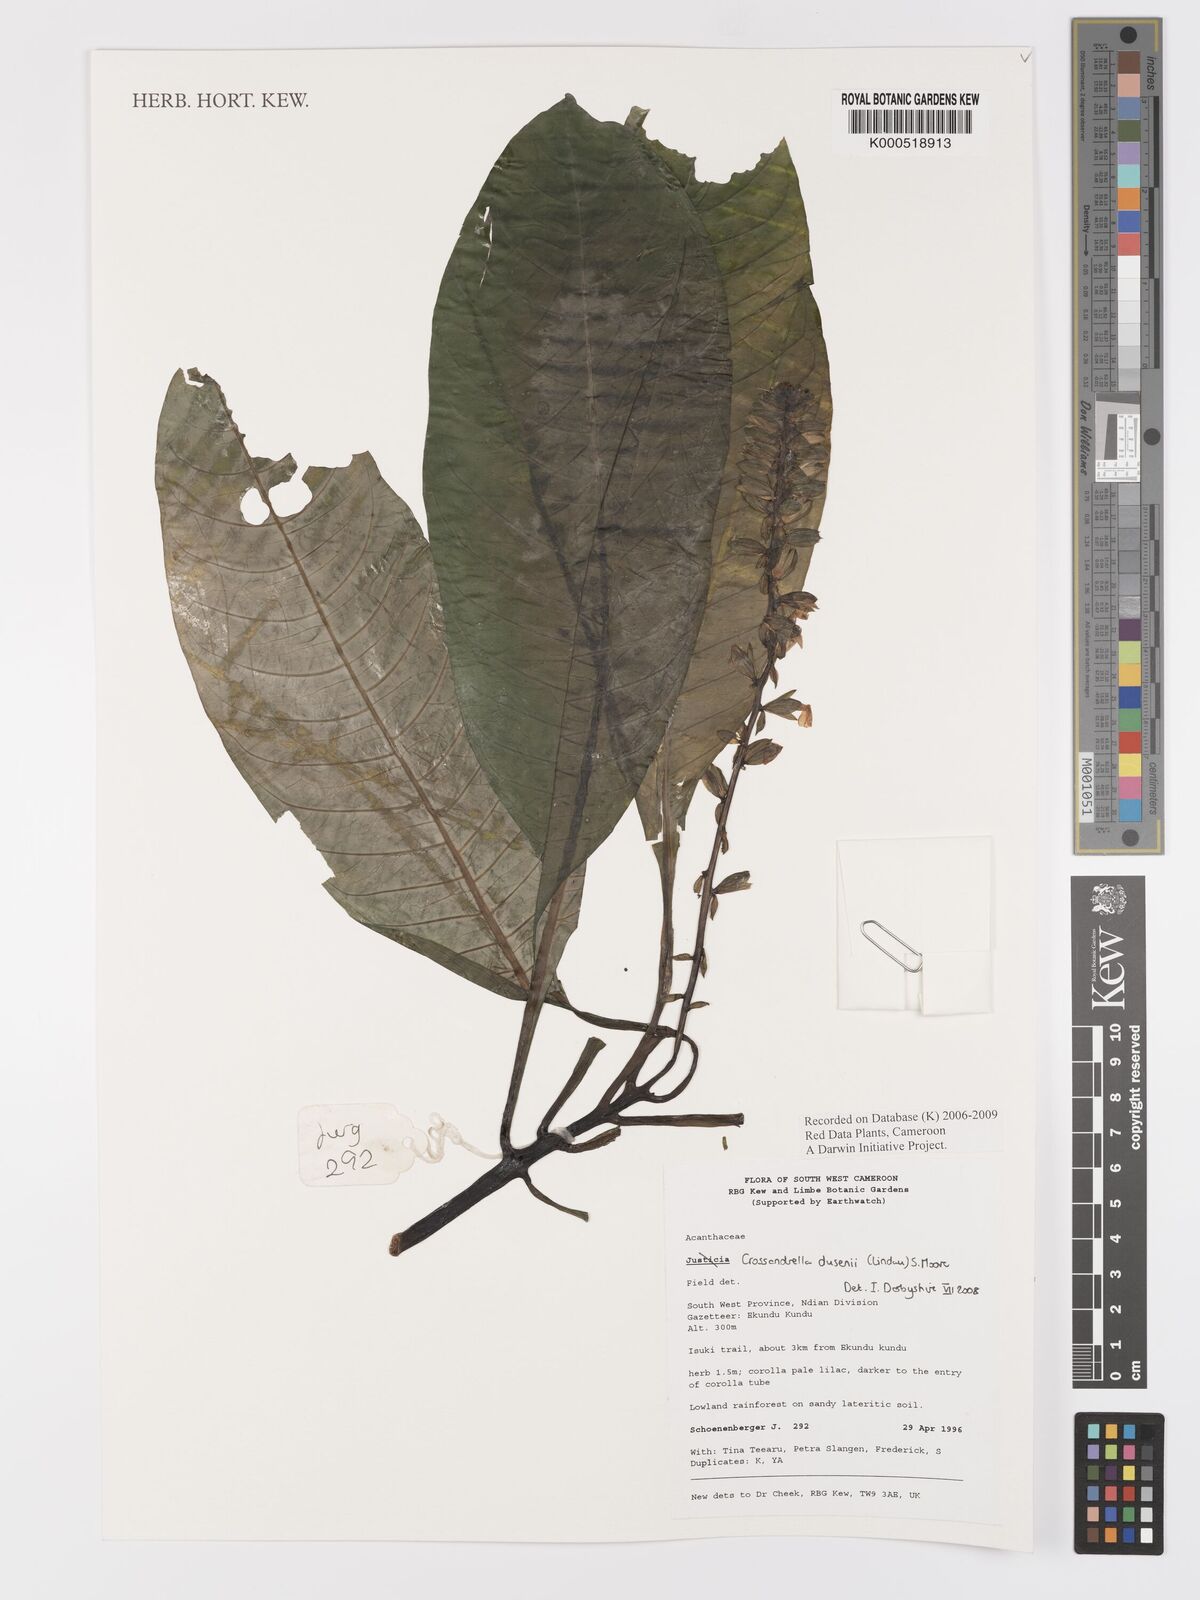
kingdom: Plantae
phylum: Tracheophyta
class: Magnoliopsida
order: Lamiales
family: Acanthaceae
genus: Crossandrella
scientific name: Crossandrella dusenii
